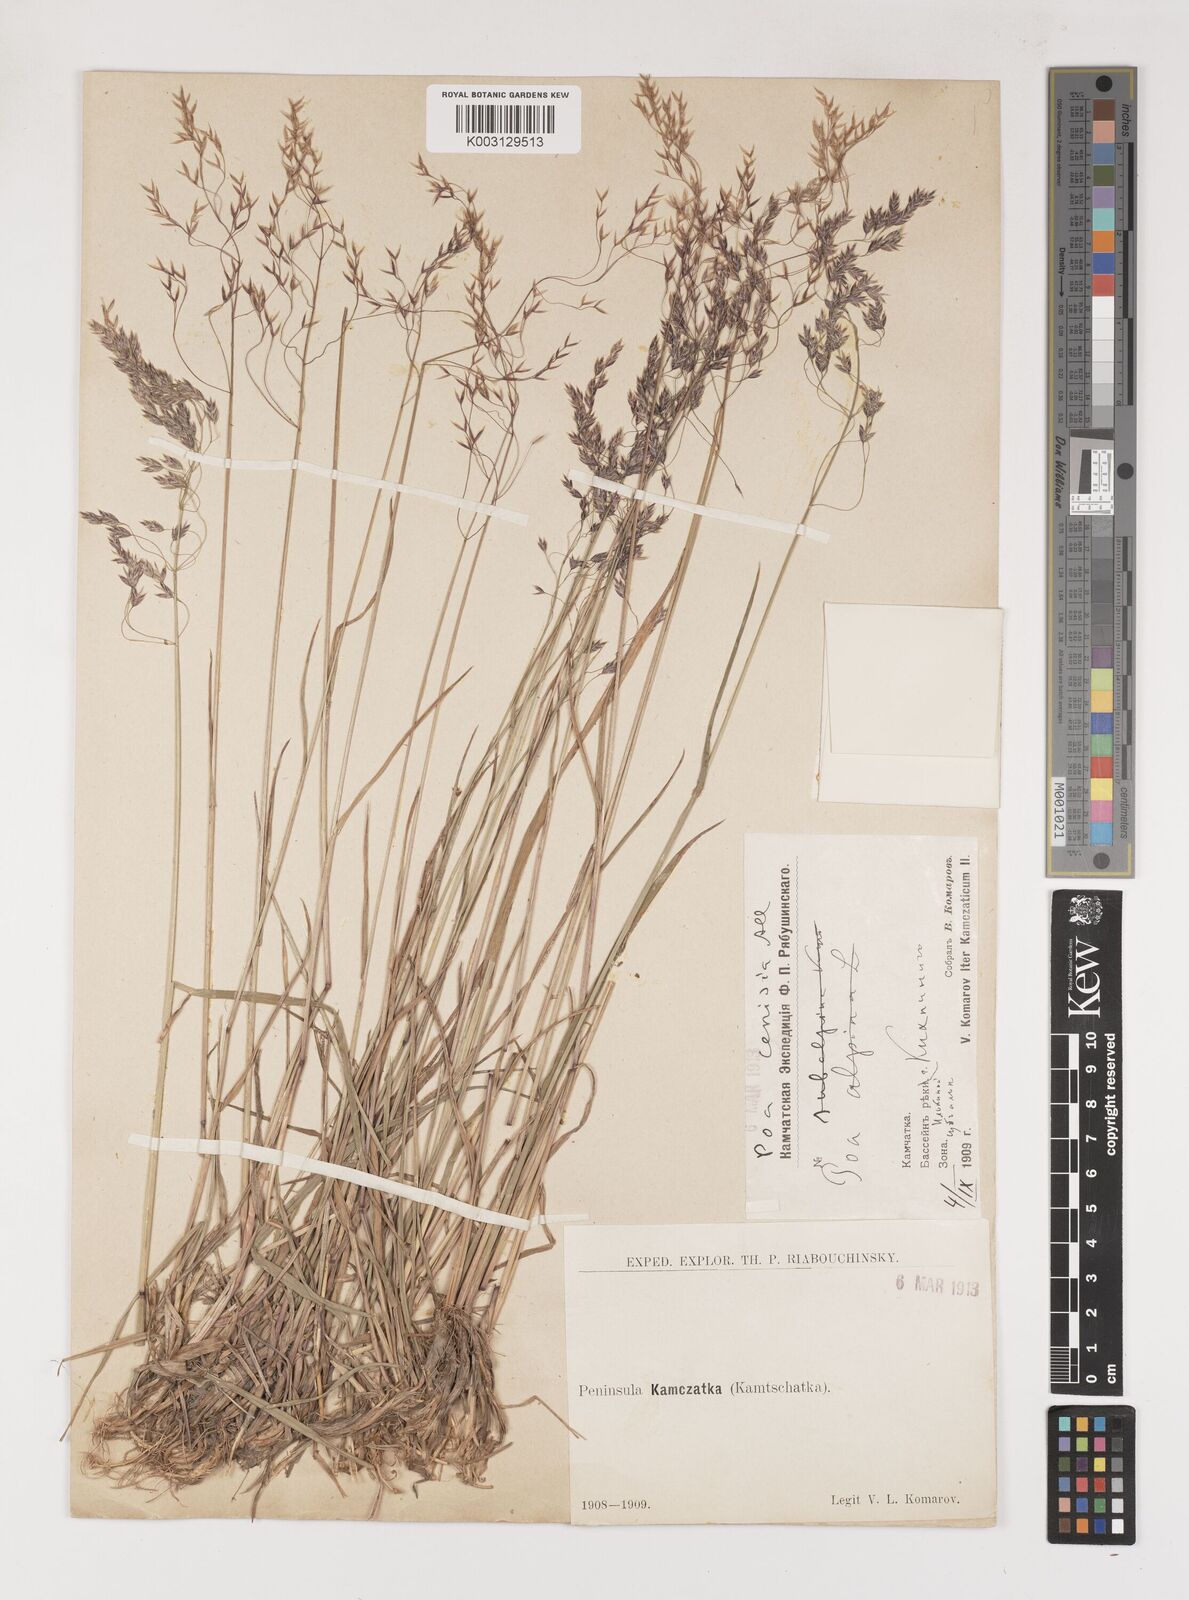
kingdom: Plantae
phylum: Tracheophyta
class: Liliopsida
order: Poales
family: Poaceae
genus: Poa
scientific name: Poa
